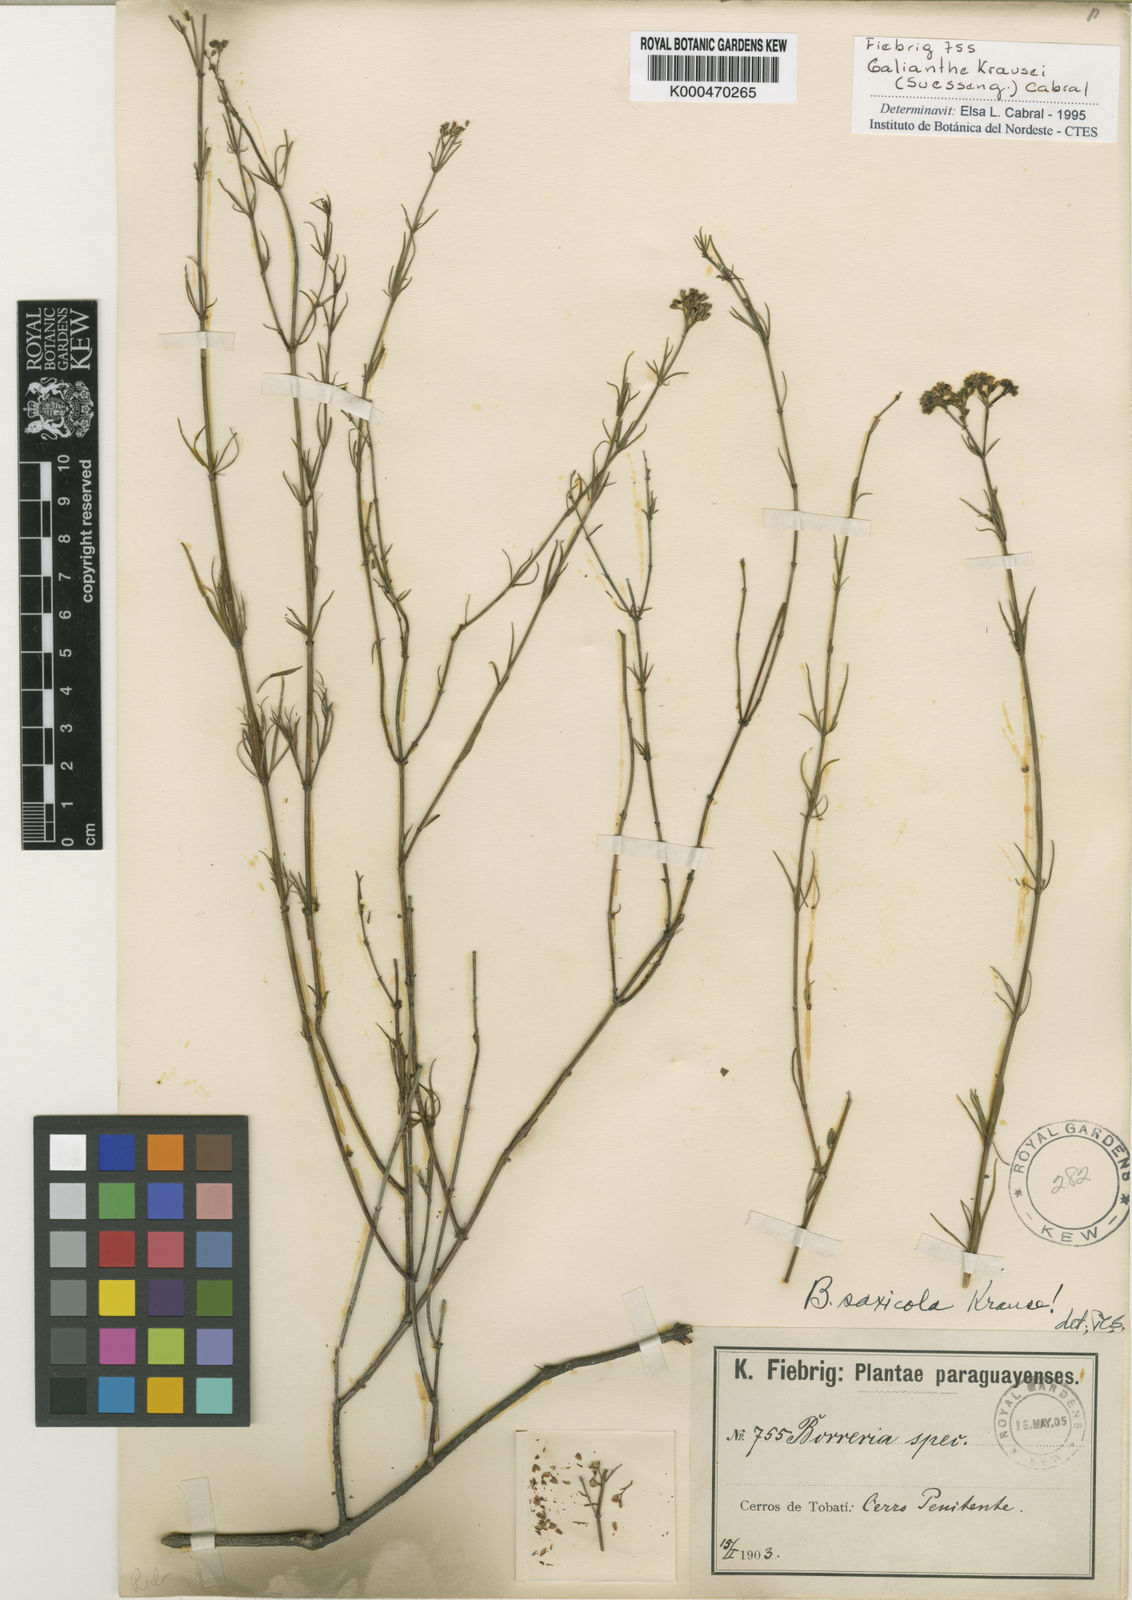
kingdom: Plantae
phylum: Tracheophyta
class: Magnoliopsida
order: Gentianales
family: Rubiaceae
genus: Galianthe
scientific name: Galianthe krausei
